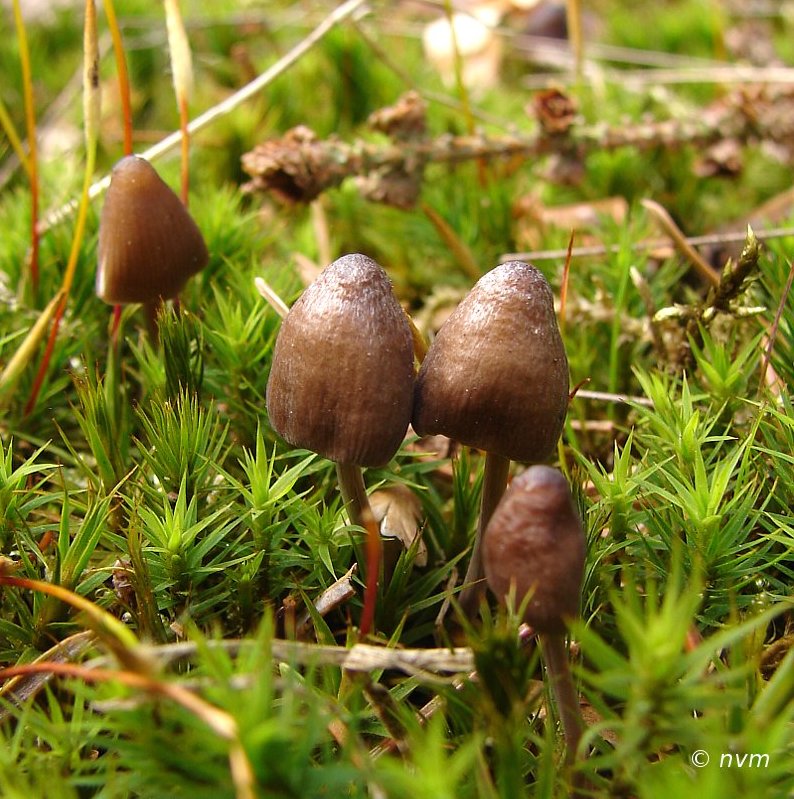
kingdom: Fungi
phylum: Basidiomycota
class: Agaricomycetes
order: Agaricales
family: Mycenaceae
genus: Mycena
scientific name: Mycena abramsii
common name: sommer-huesvamp
